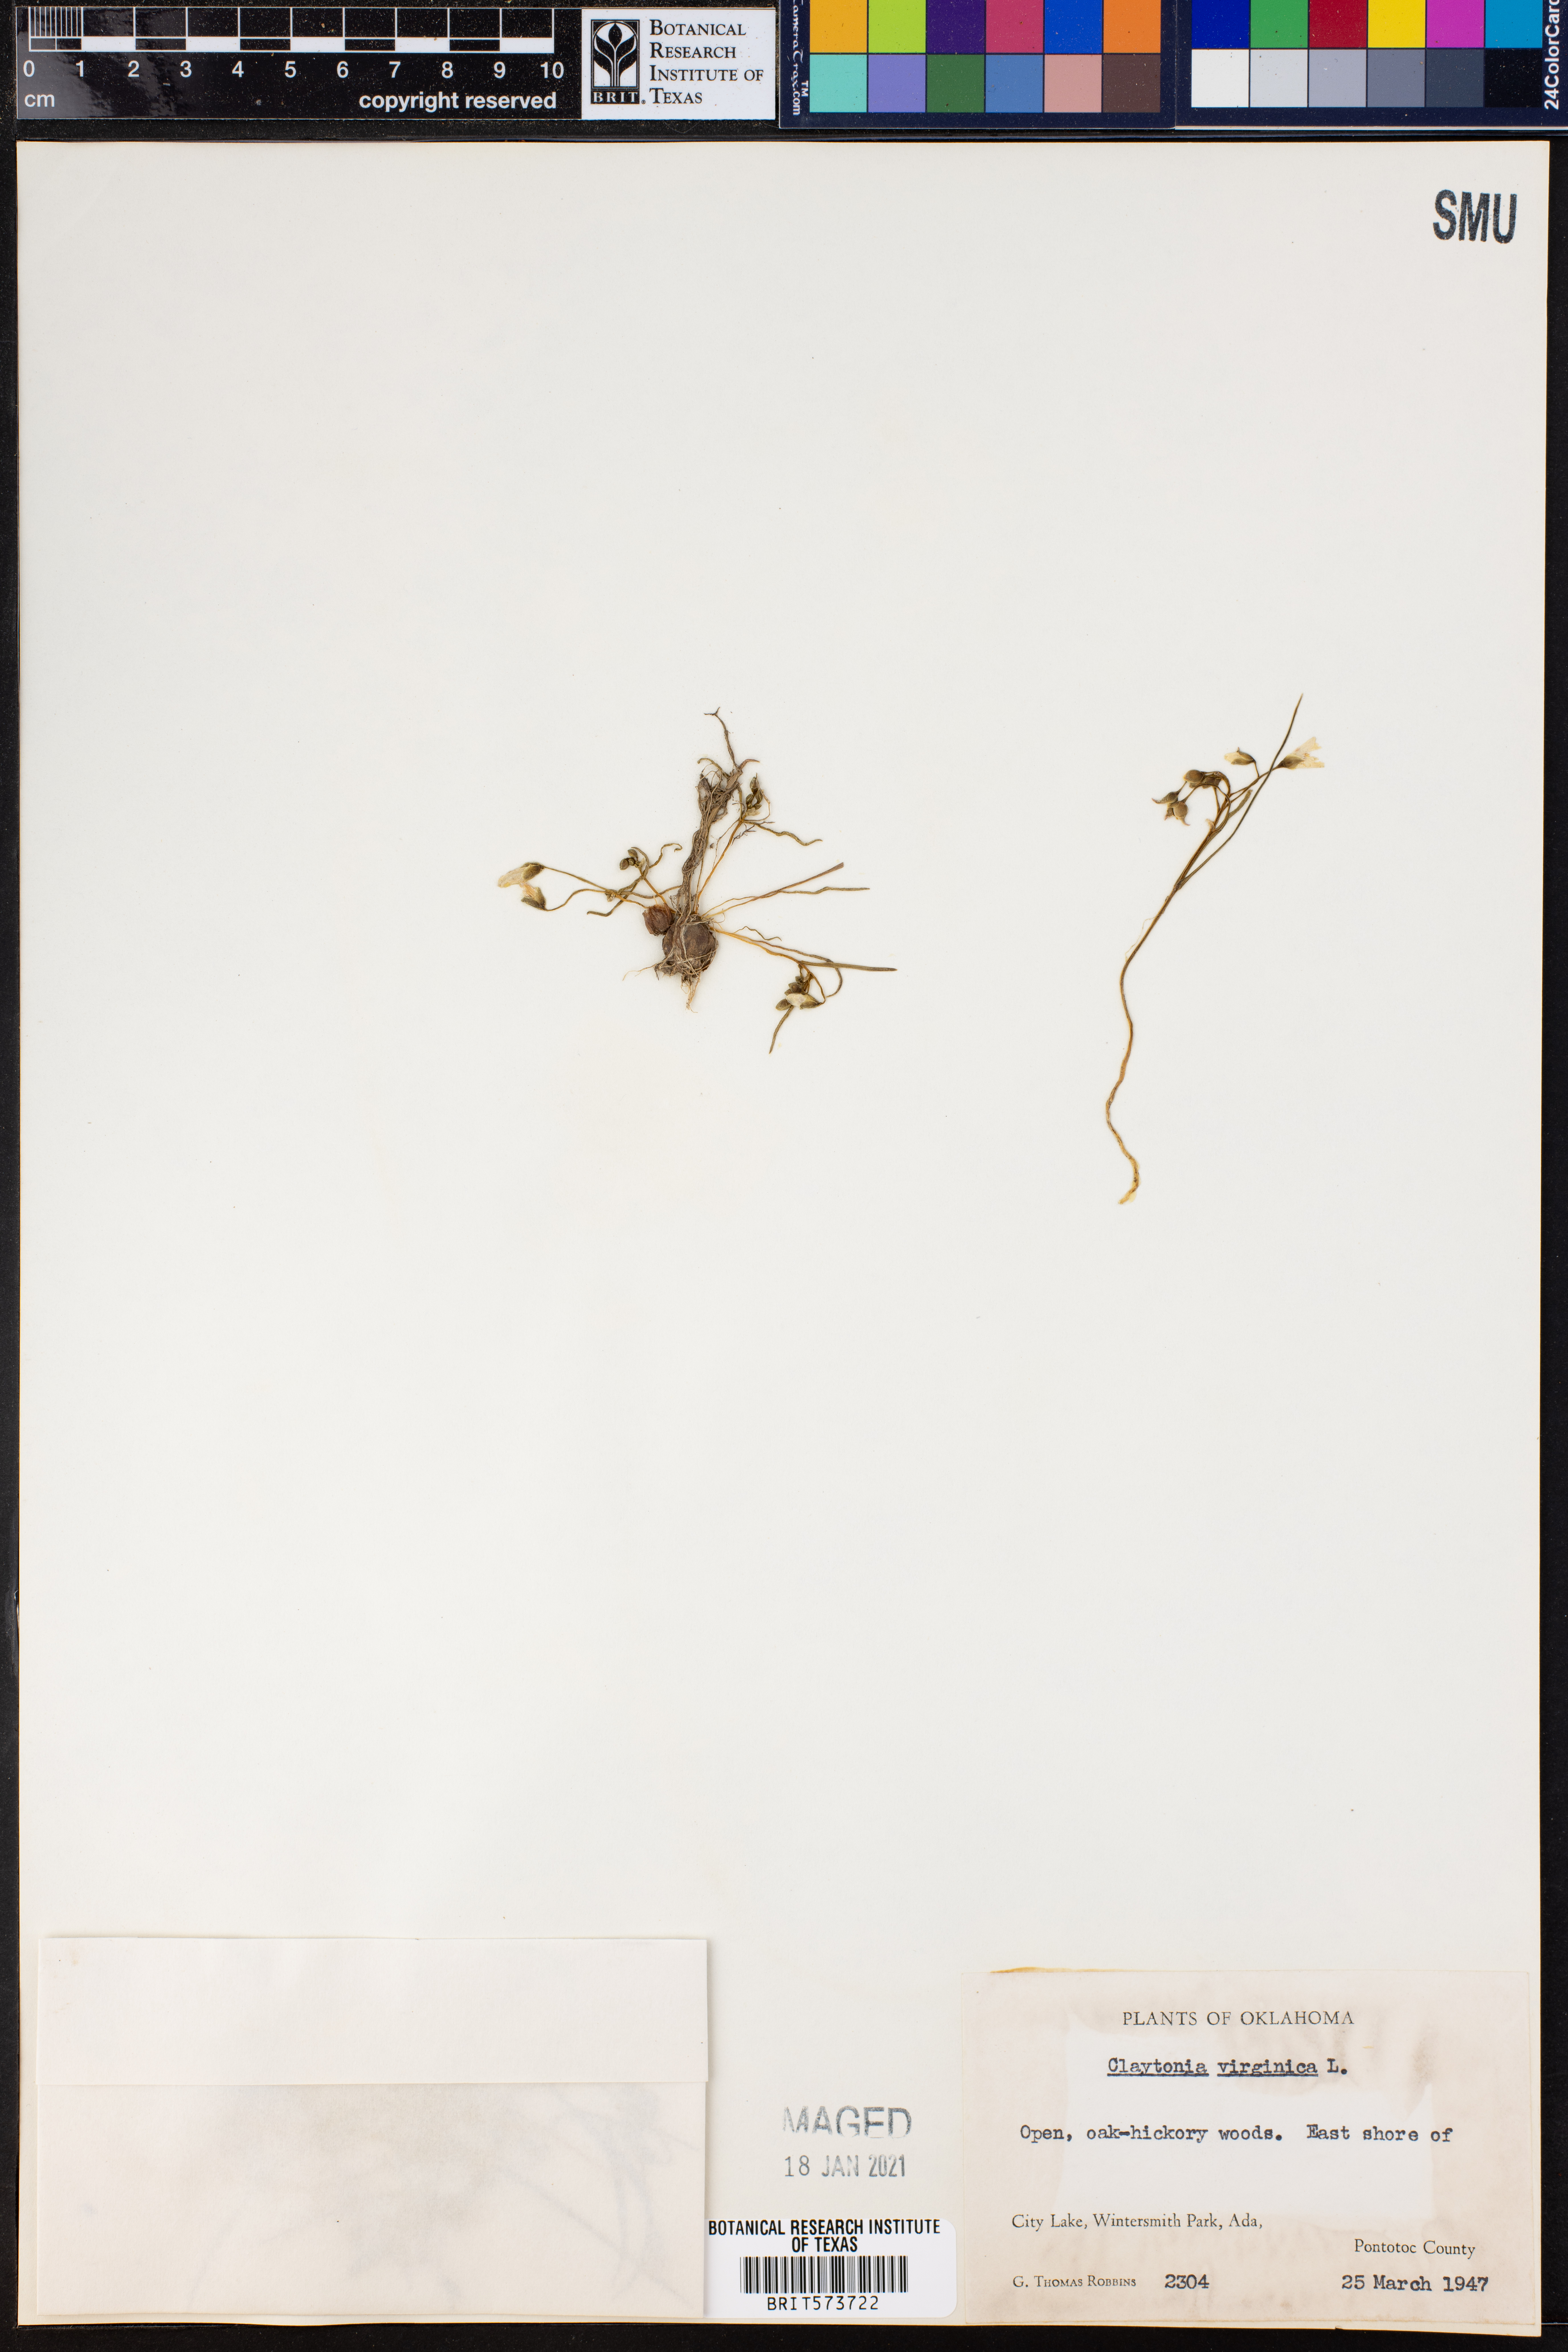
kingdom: Plantae
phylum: Tracheophyta
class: Magnoliopsida
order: Caryophyllales
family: Montiaceae
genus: Claytonia
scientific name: Claytonia virginica
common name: Virginia springbeauty
